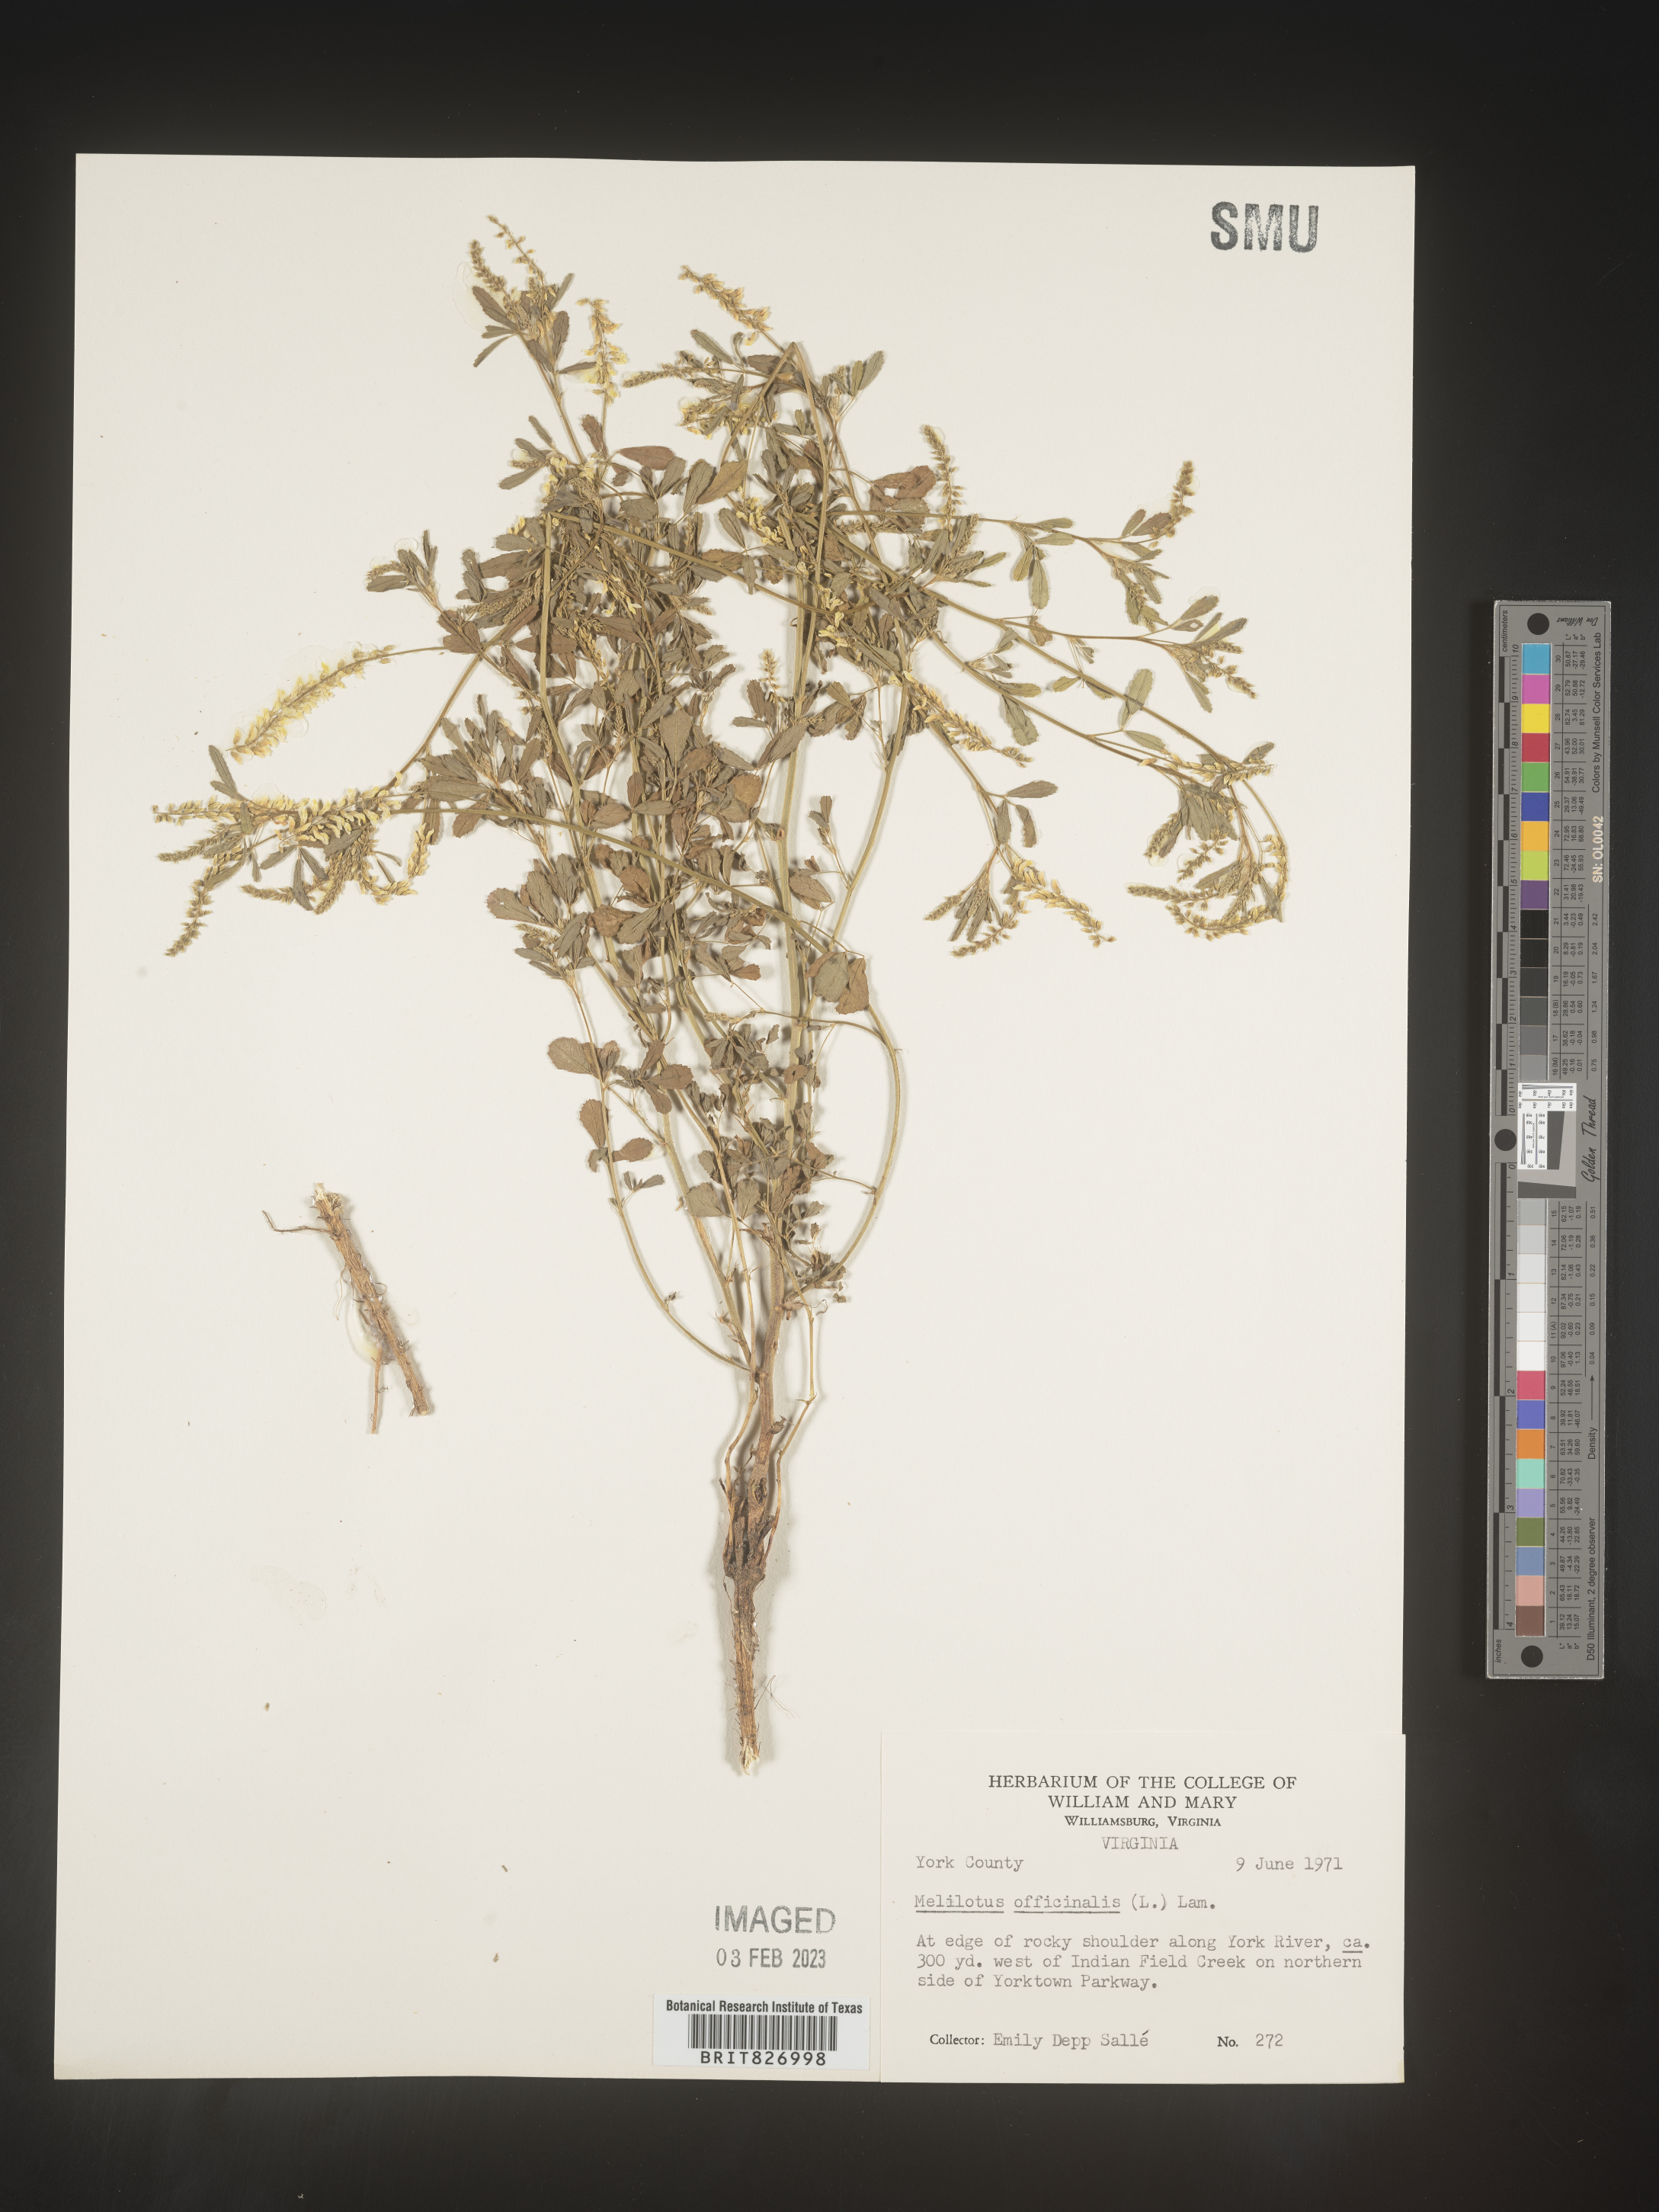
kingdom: Plantae
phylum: Tracheophyta
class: Magnoliopsida
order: Fabales
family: Fabaceae
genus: Melilotus
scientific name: Melilotus officinalis
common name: Sweetclover
